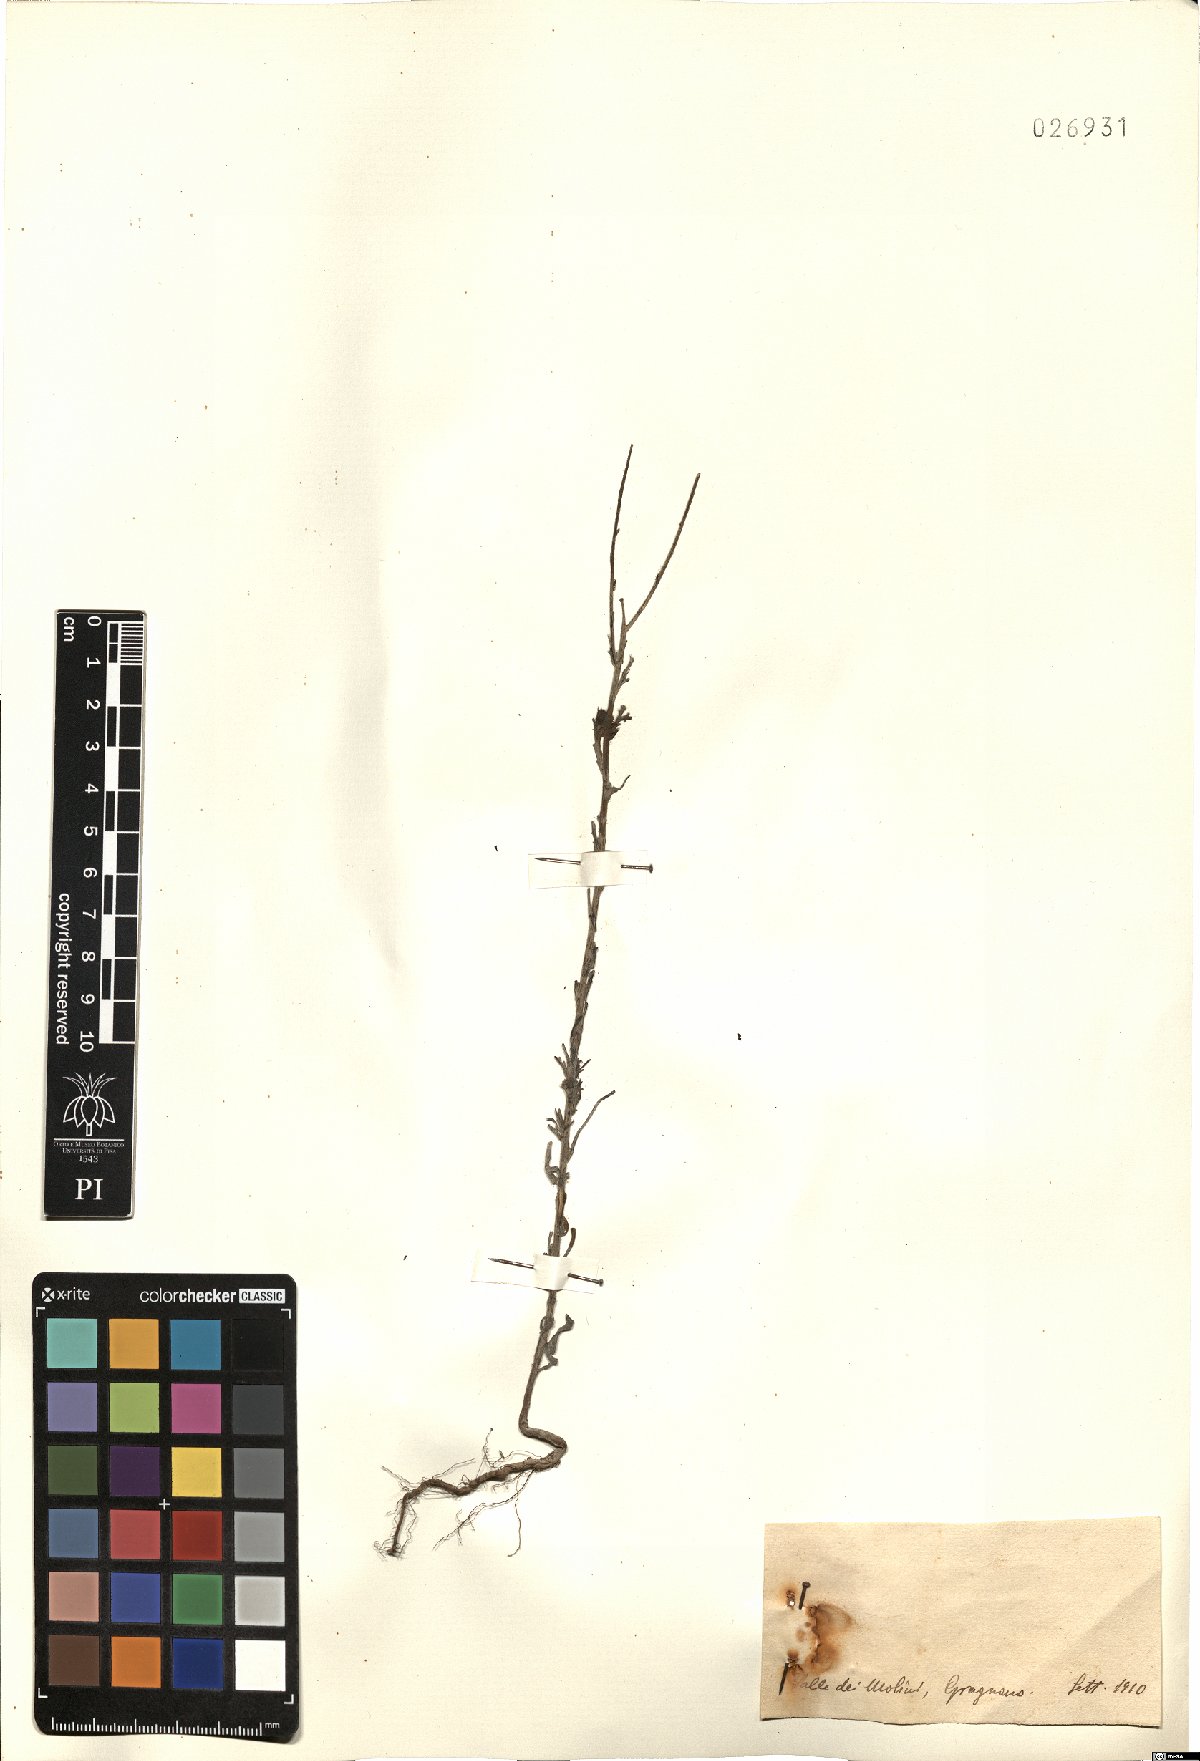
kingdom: Plantae
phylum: Tracheophyta
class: Magnoliopsida
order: Asterales
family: Asteraceae
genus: Erigeron
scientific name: Erigeron
